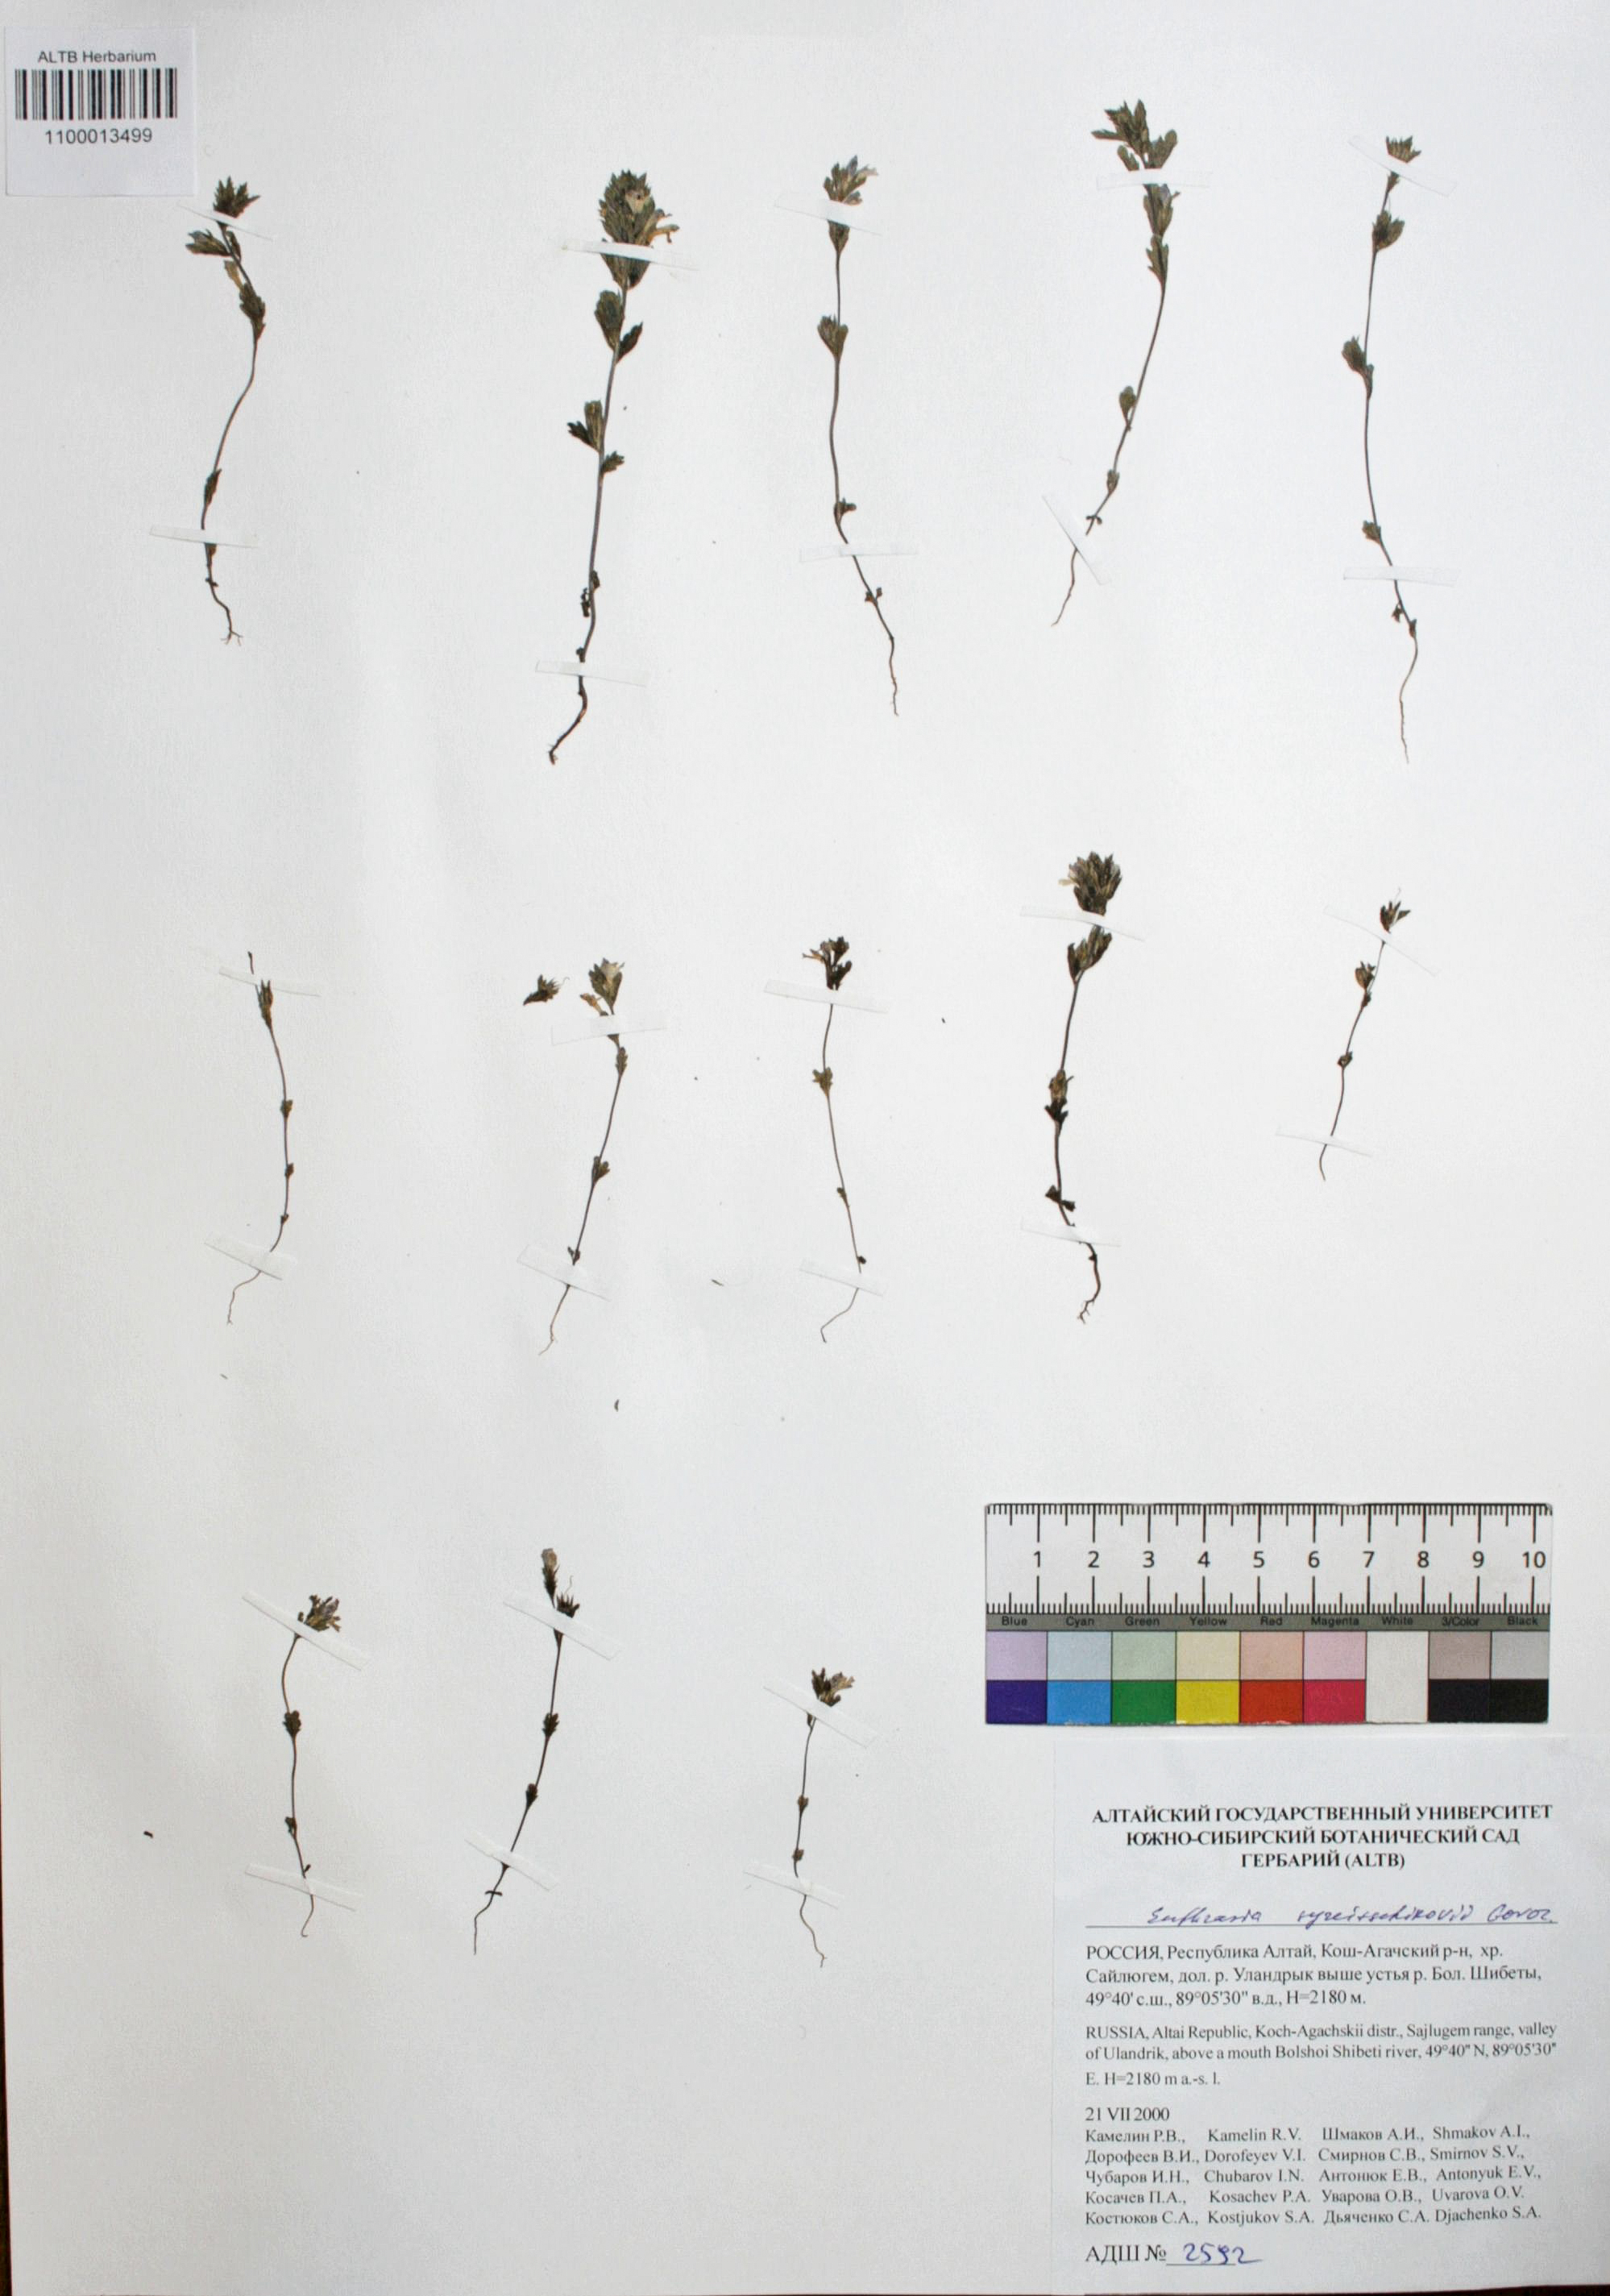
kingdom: Plantae
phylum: Tracheophyta
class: Magnoliopsida
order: Lamiales
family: Orobanchaceae
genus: Euphrasia
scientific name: Euphrasia syreitschikovii
